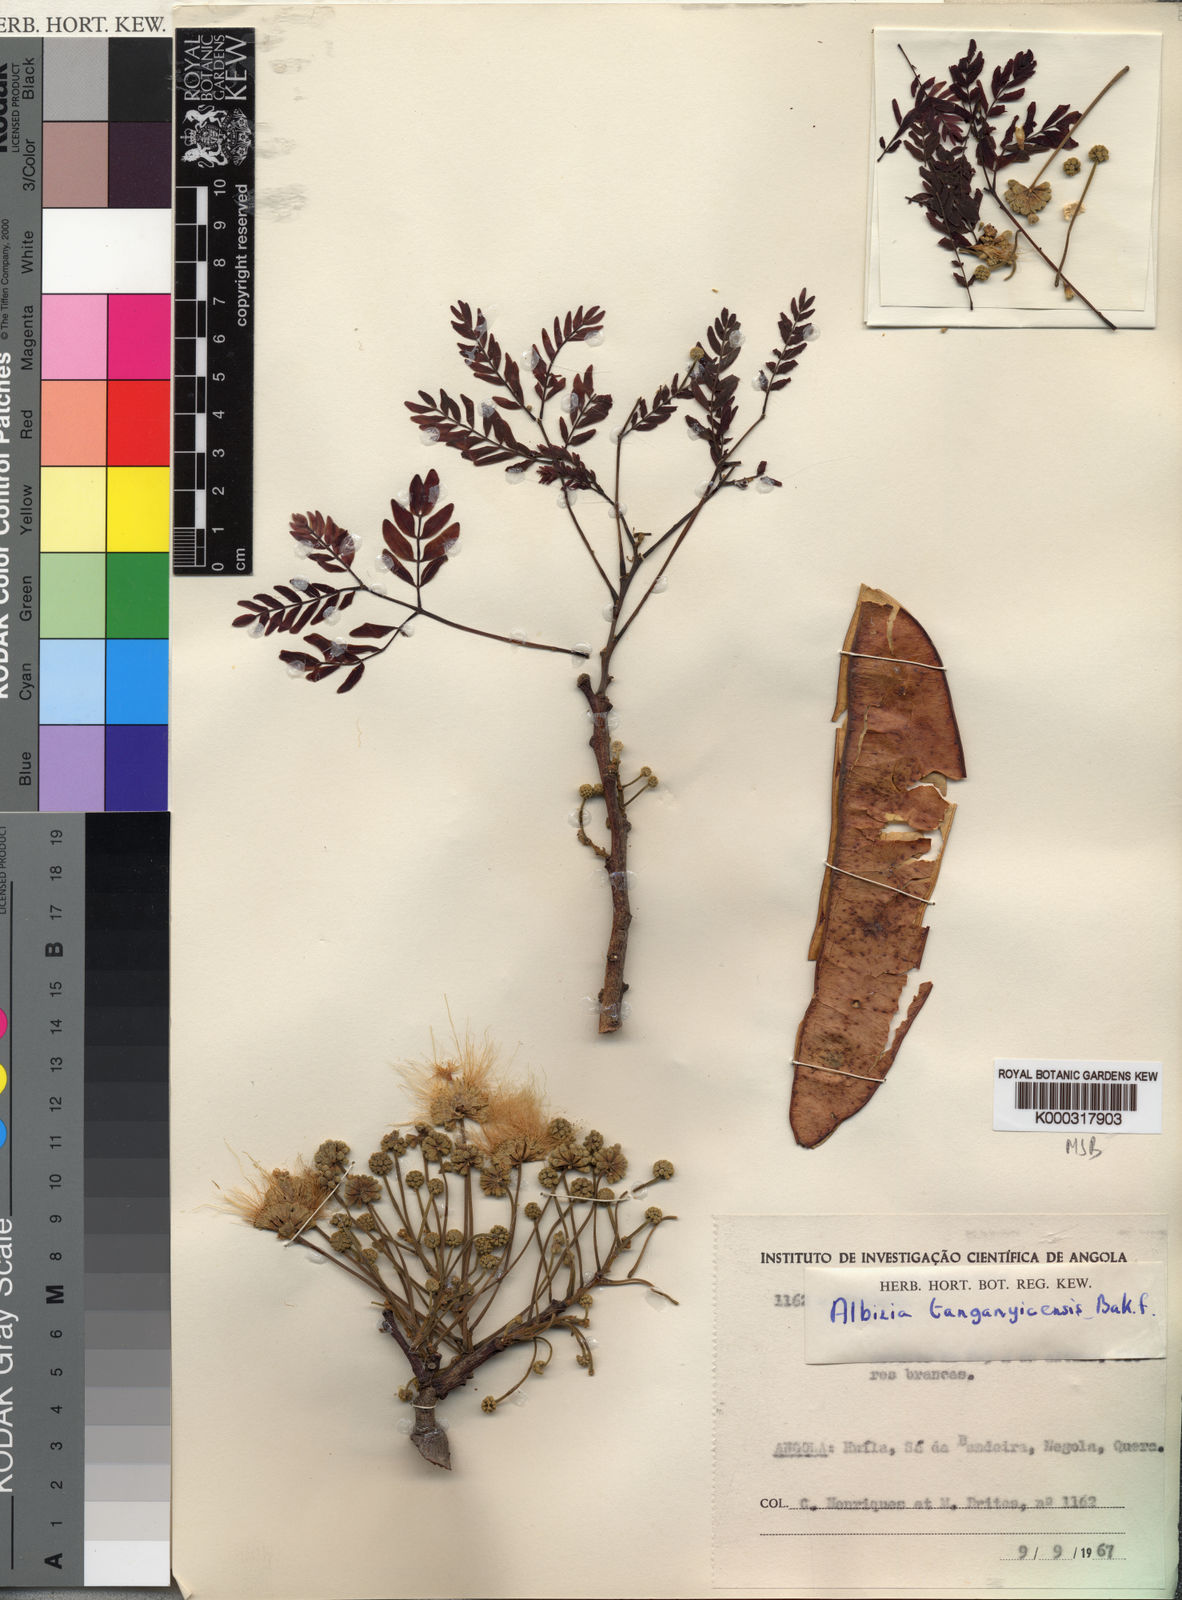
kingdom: Plantae
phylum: Tracheophyta
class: Magnoliopsida
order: Fabales
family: Fabaceae
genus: Albizia
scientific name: Albizia tanganyicensis
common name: Paperbark false thorn
